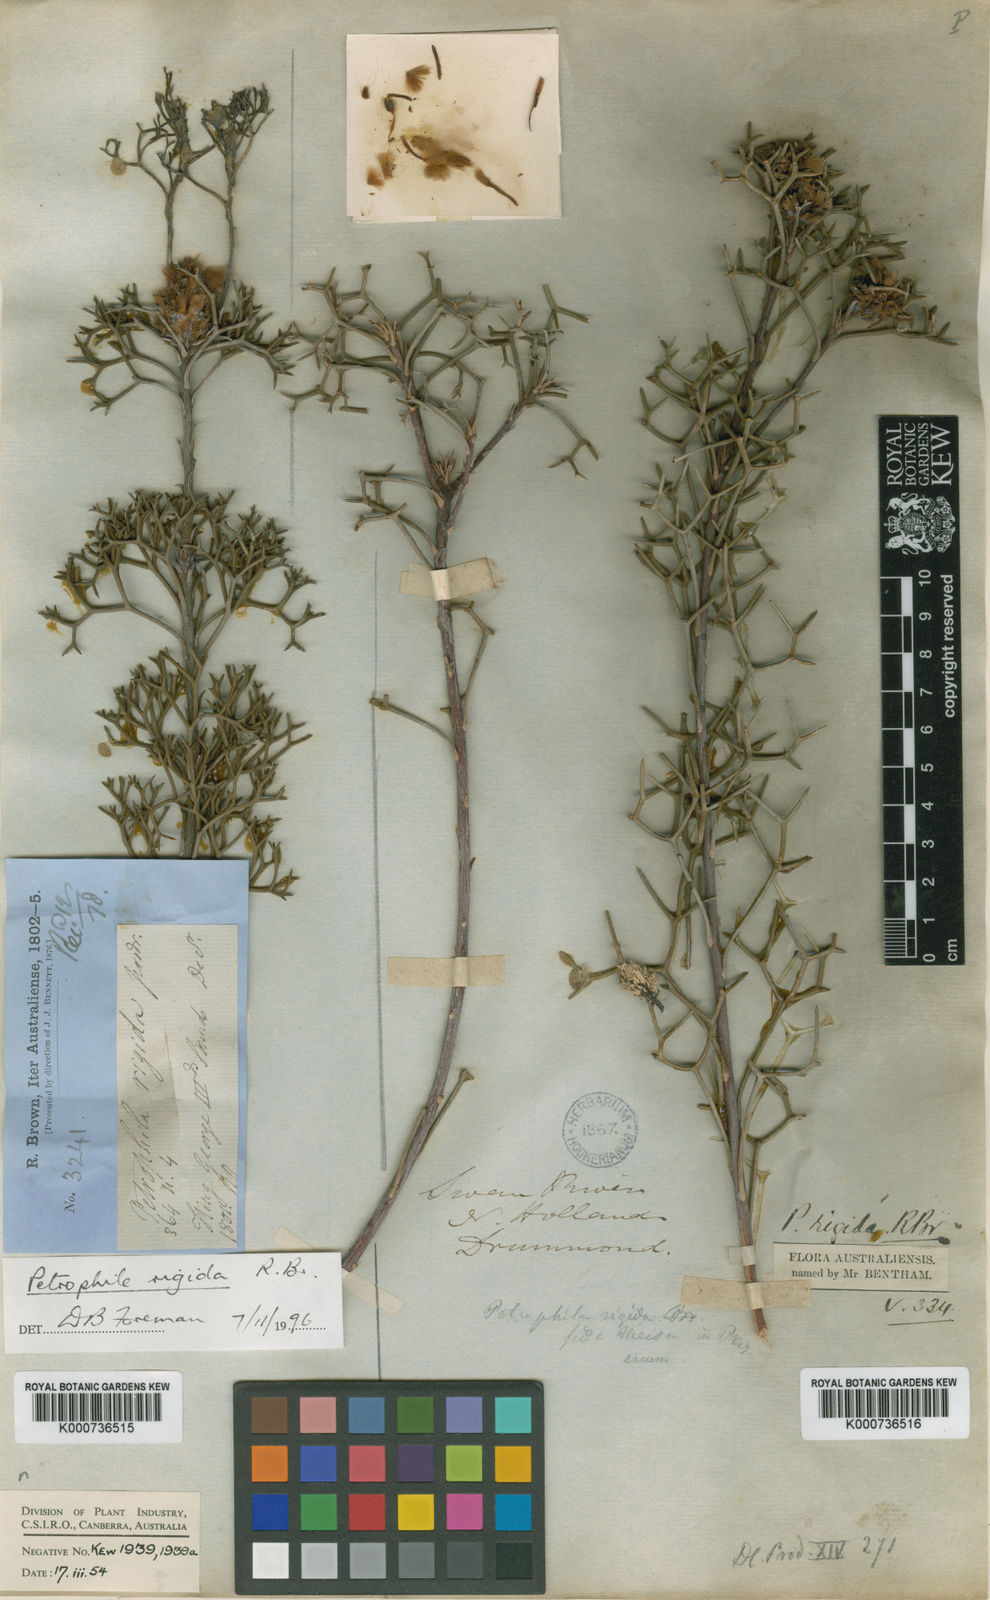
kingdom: Plantae
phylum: Tracheophyta
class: Magnoliopsida
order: Proteales
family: Proteaceae
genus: Petrophile
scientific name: Petrophile rigida
